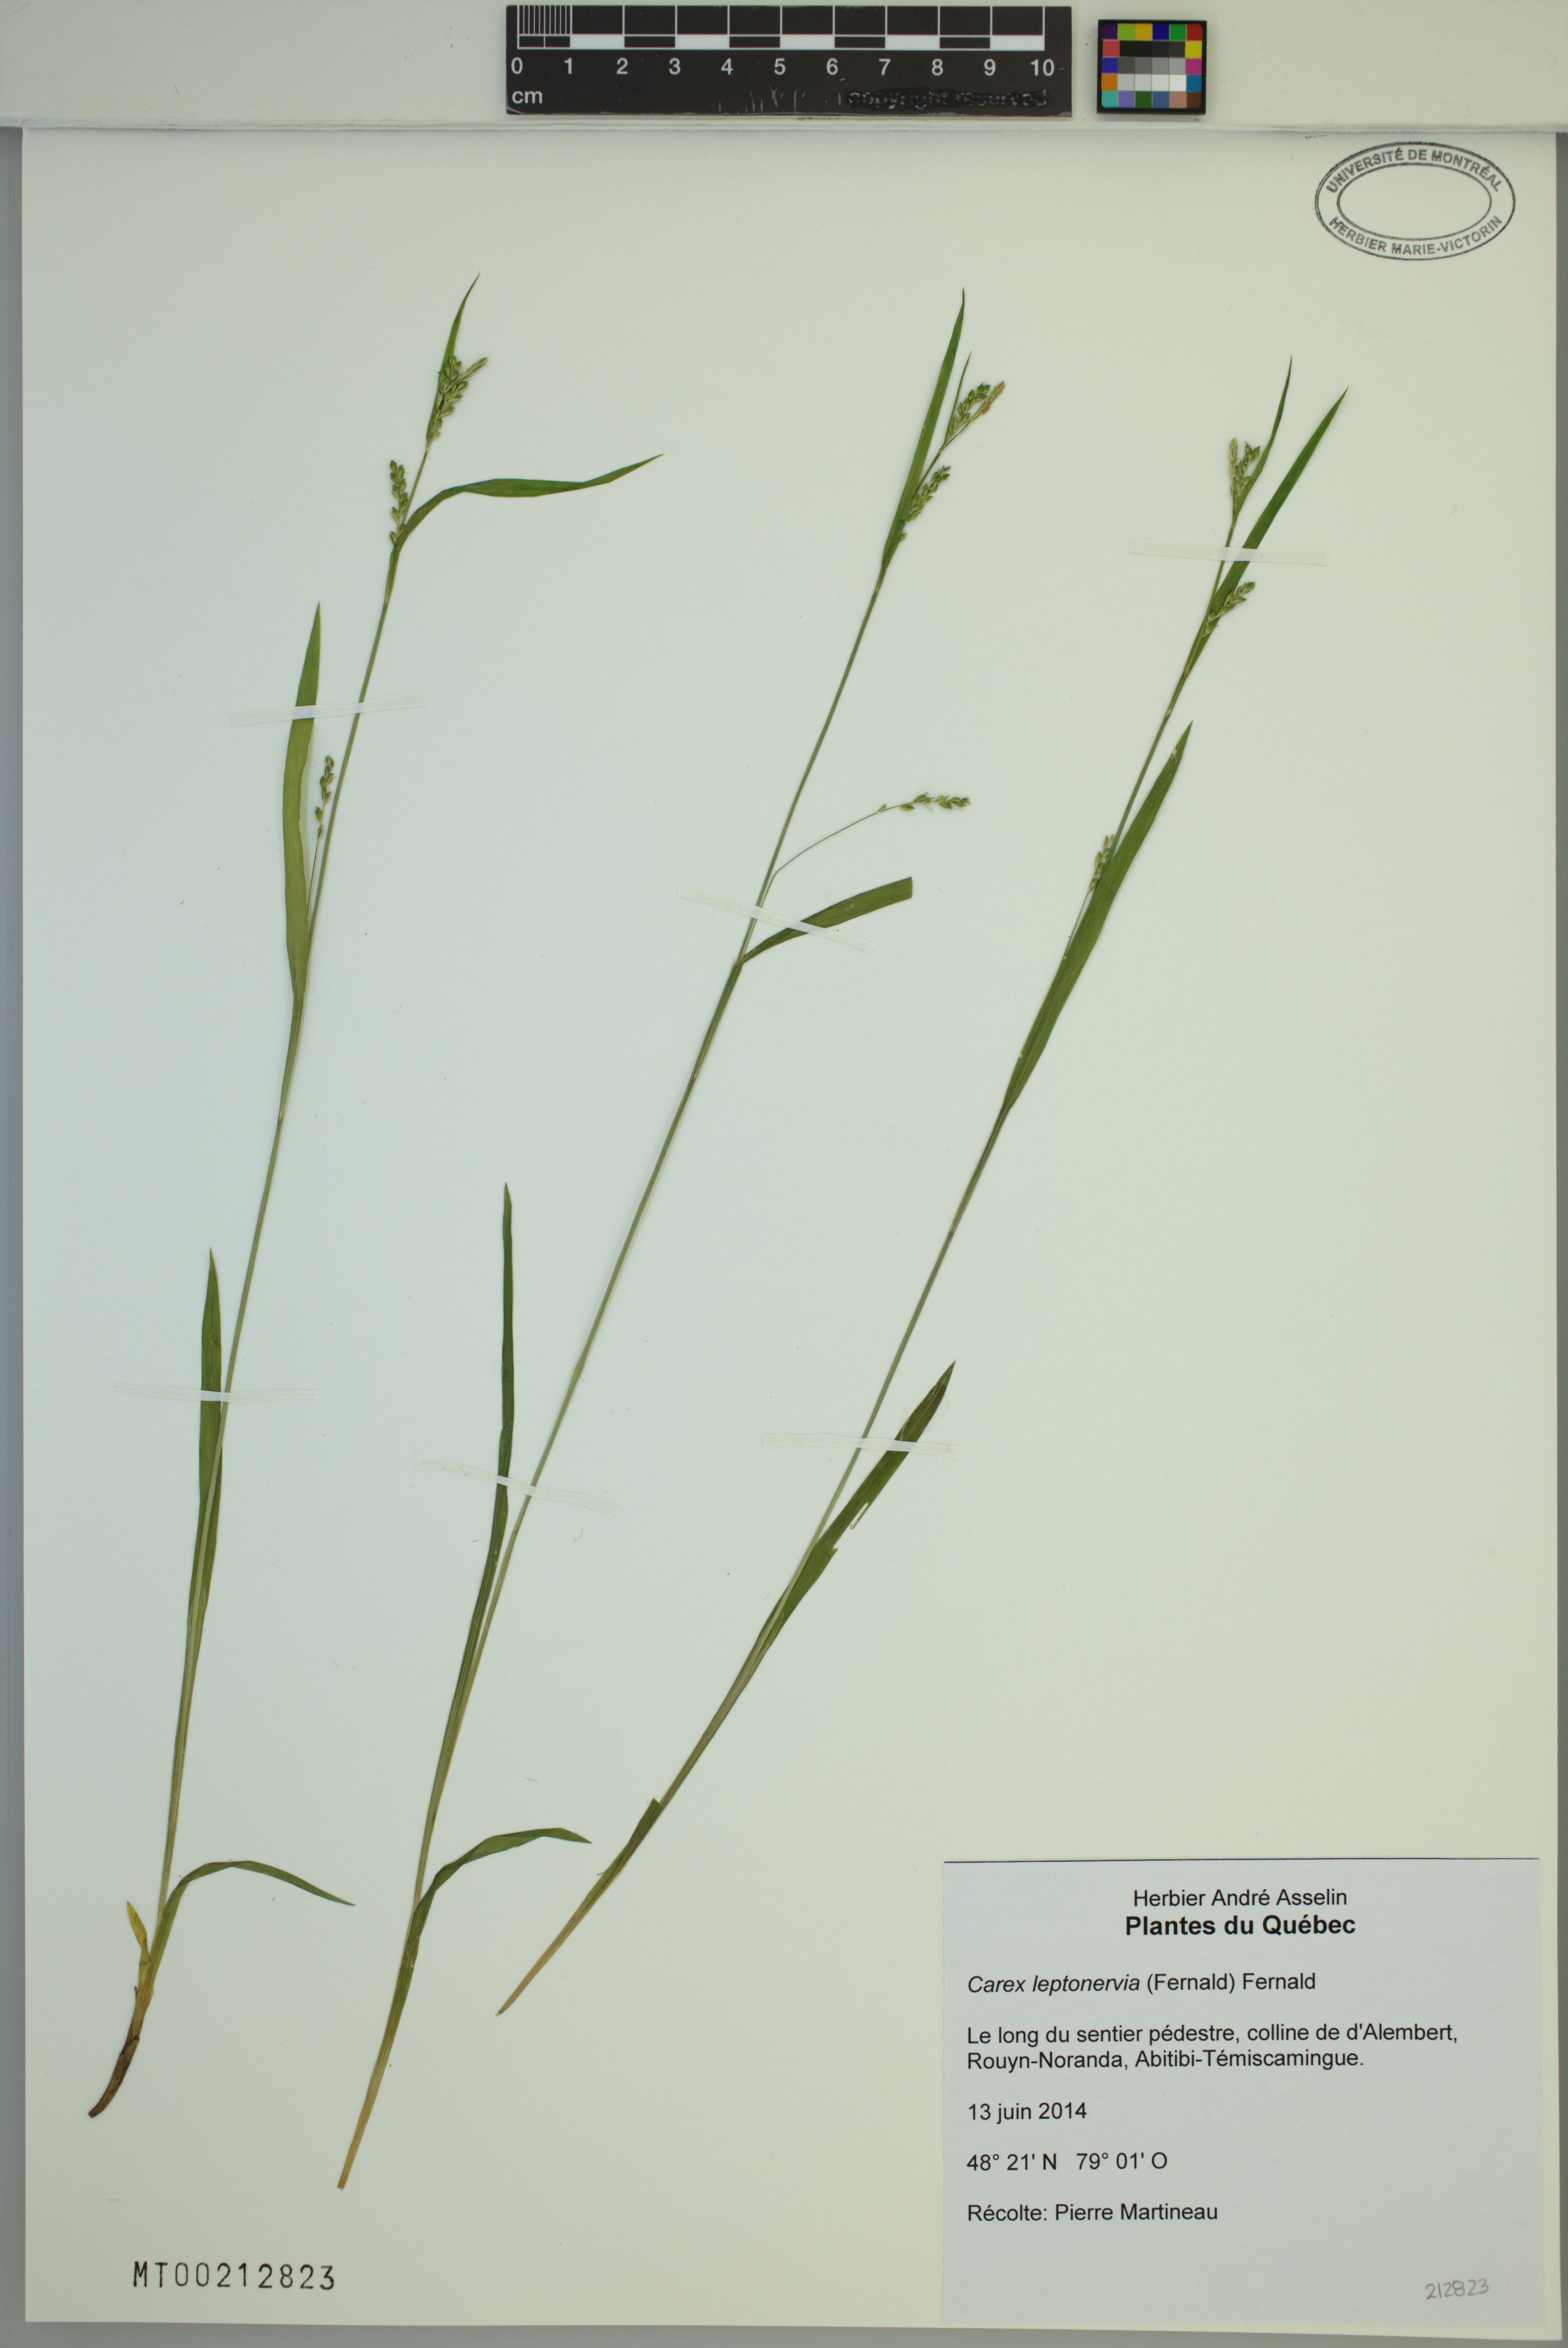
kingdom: Plantae
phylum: Tracheophyta
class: Liliopsida
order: Poales
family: Cyperaceae
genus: Carex
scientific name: Carex leptonervia
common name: Few-nerved wood sedge
